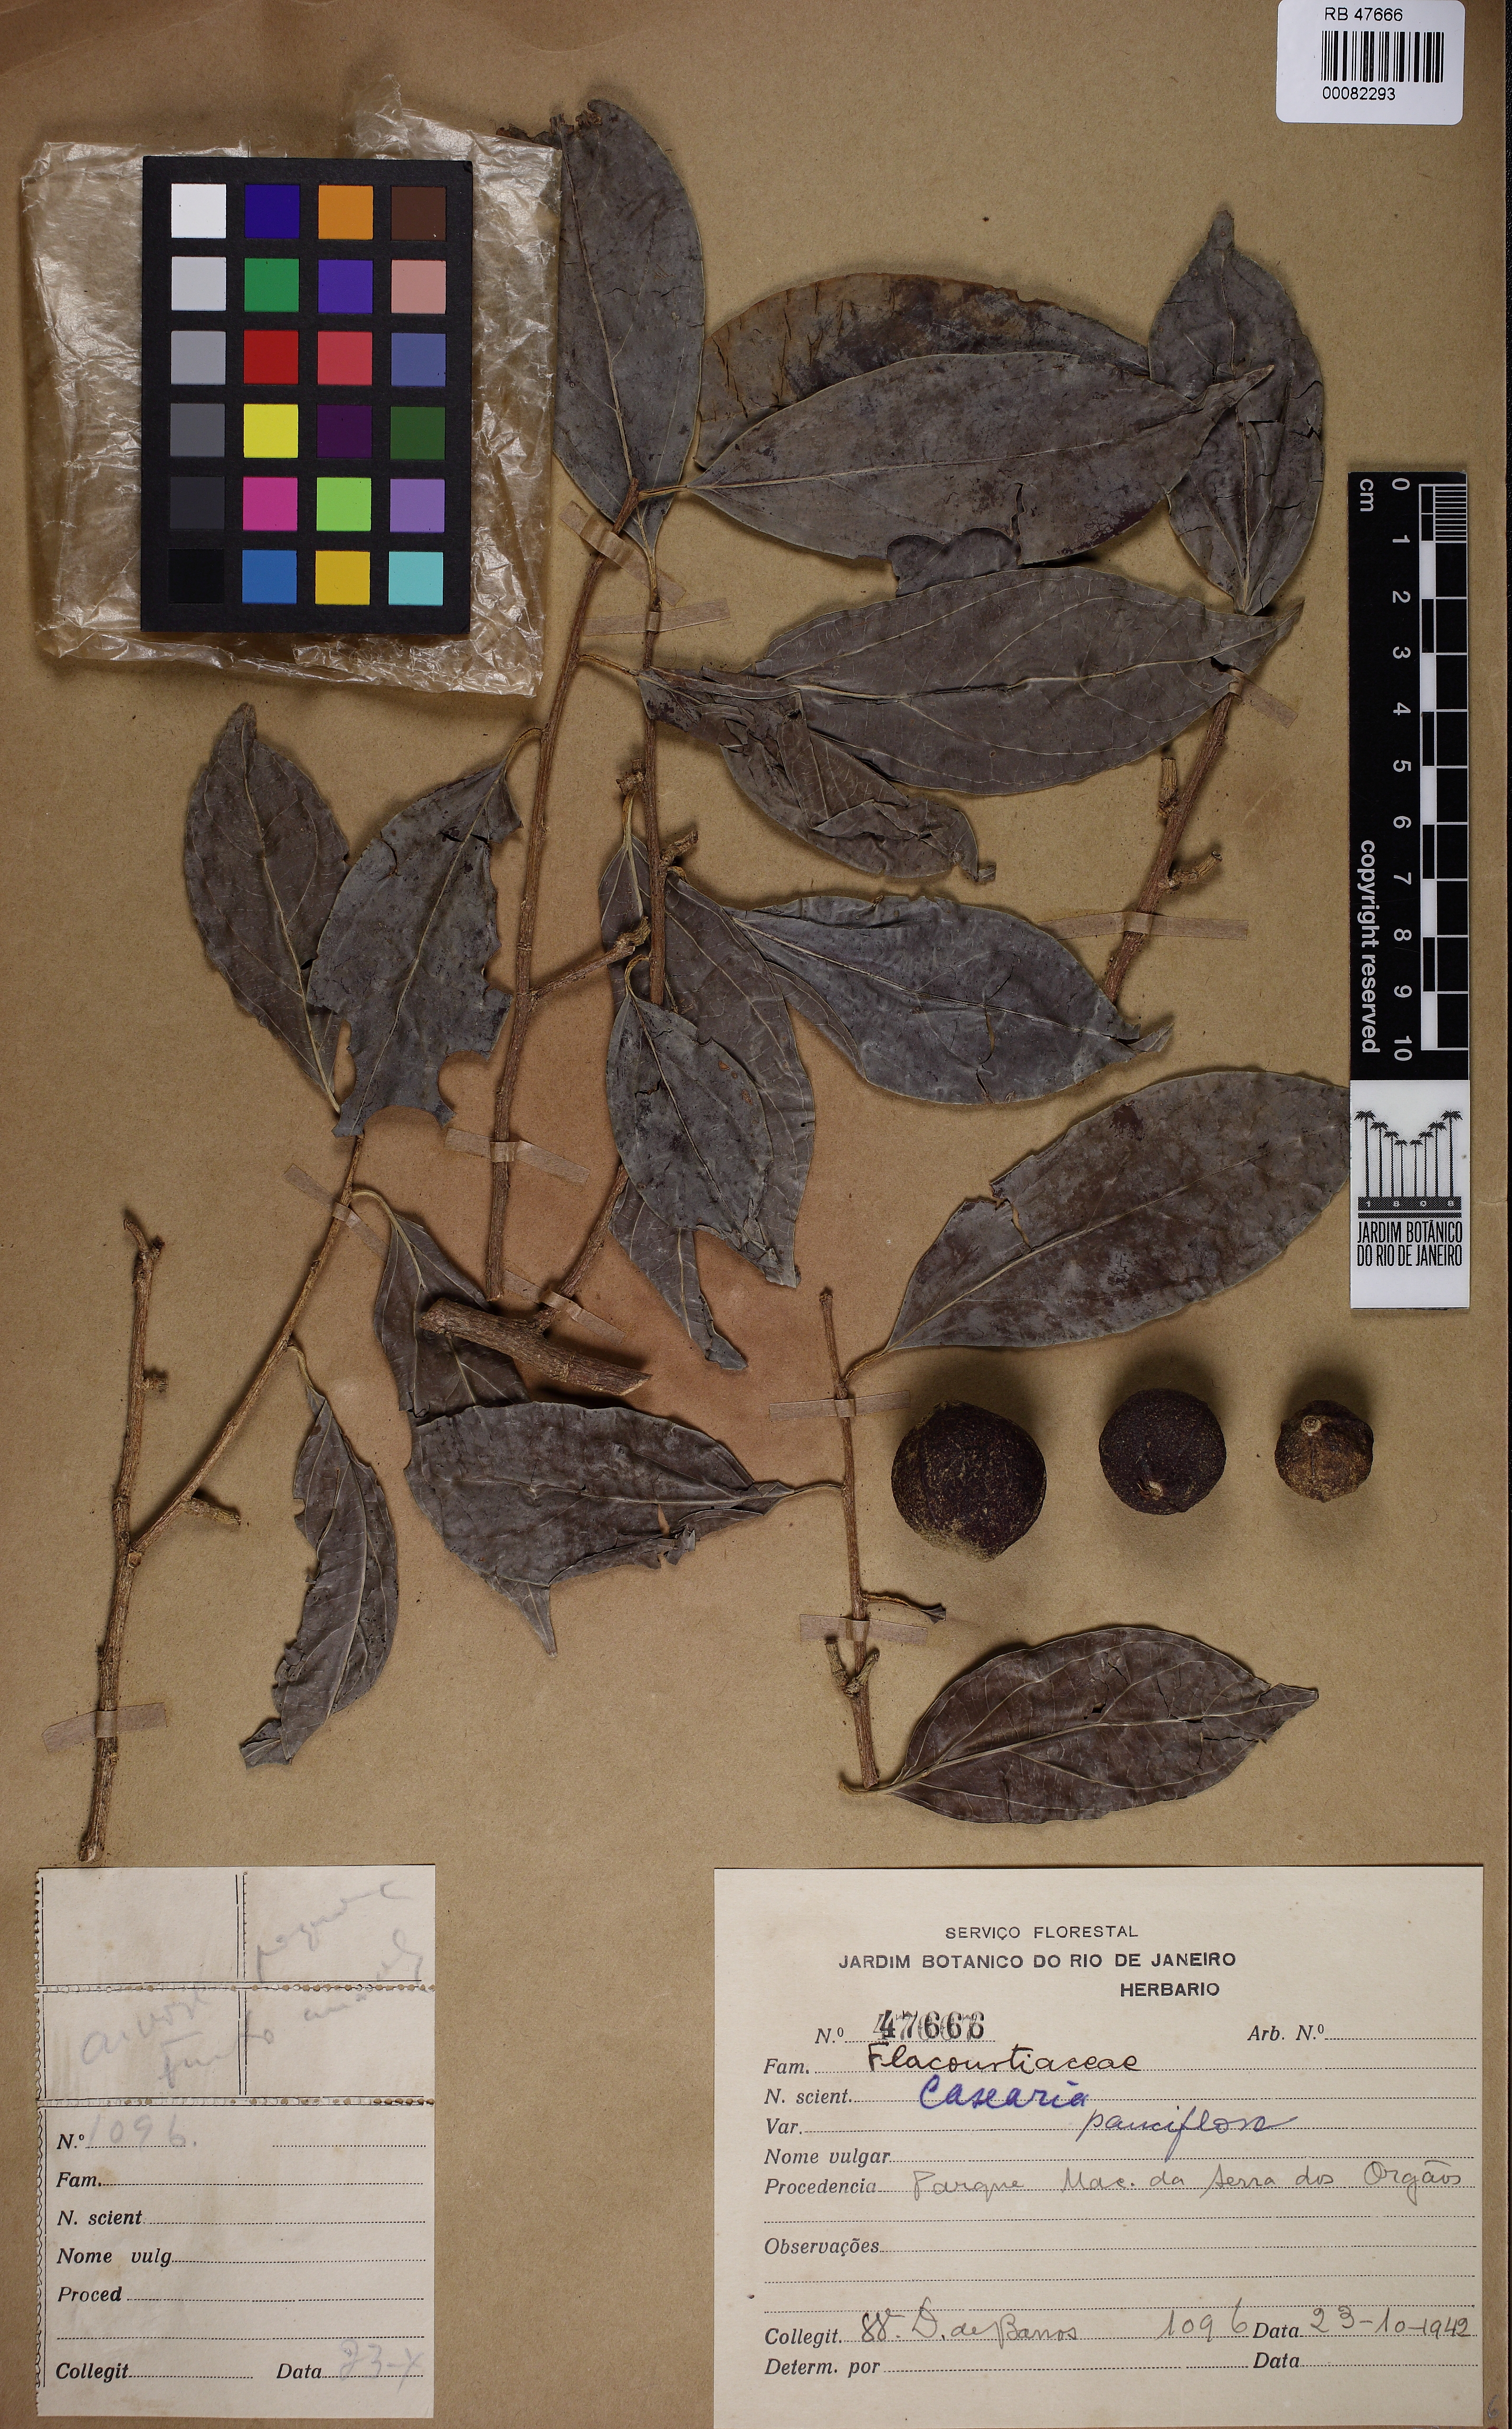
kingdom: Plantae
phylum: Tracheophyta
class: Magnoliopsida
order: Malpighiales
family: Salicaceae
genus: Casearia
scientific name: Casearia pauciflora
